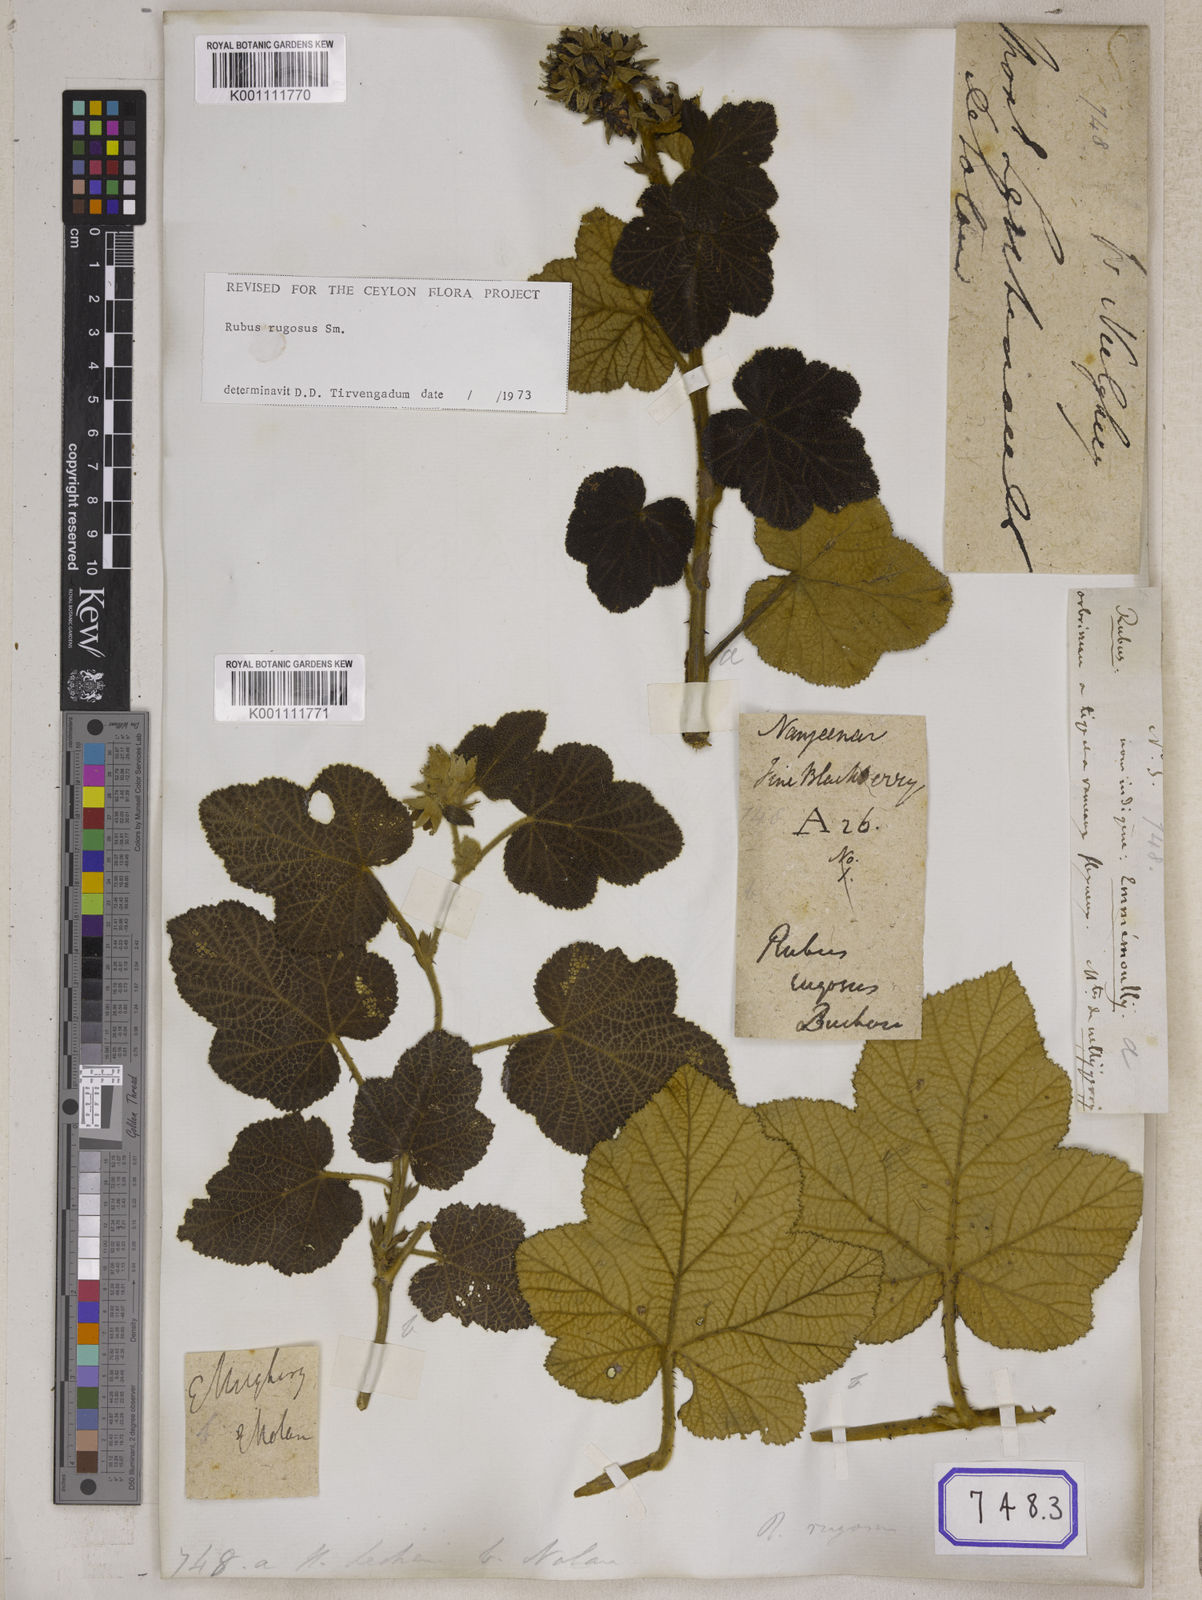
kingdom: Plantae
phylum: Tracheophyta
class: Magnoliopsida
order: Rosales
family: Rosaceae
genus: Rubus
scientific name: Rubus
